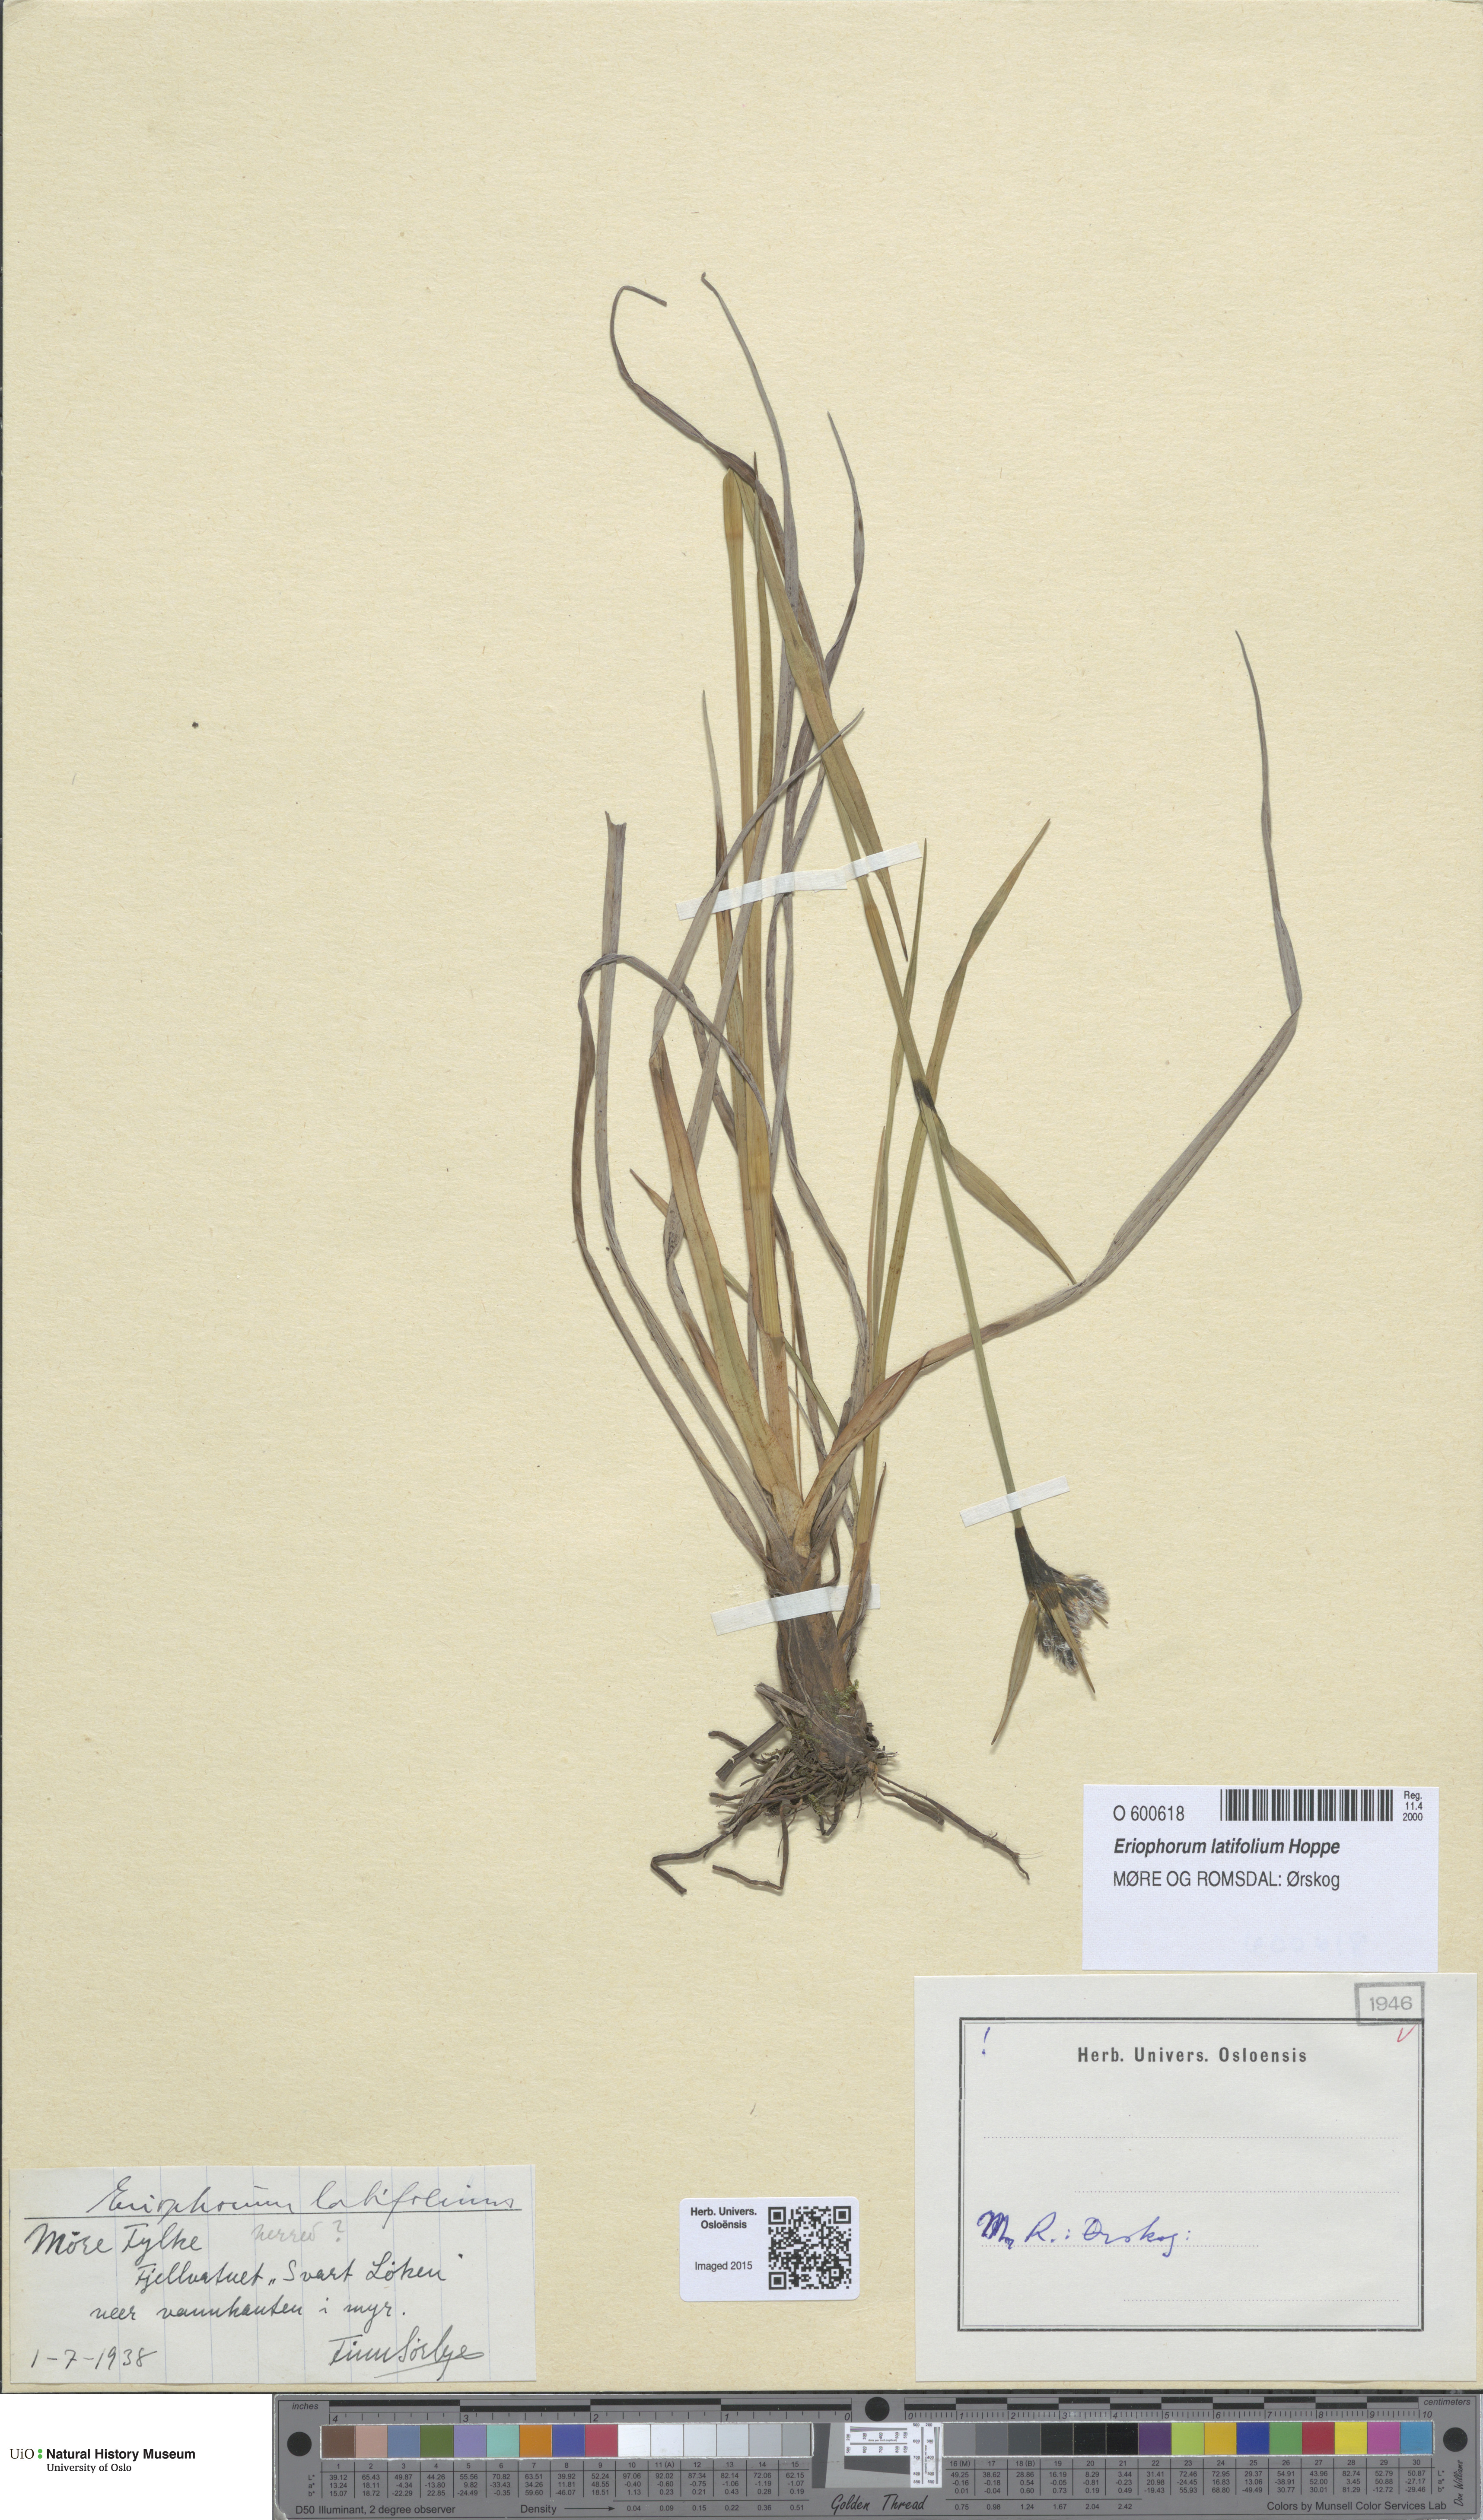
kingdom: Plantae
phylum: Tracheophyta
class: Liliopsida
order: Poales
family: Cyperaceae
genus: Eriophorum
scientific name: Eriophorum latifolium
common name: Broad-leaved cottongrass
